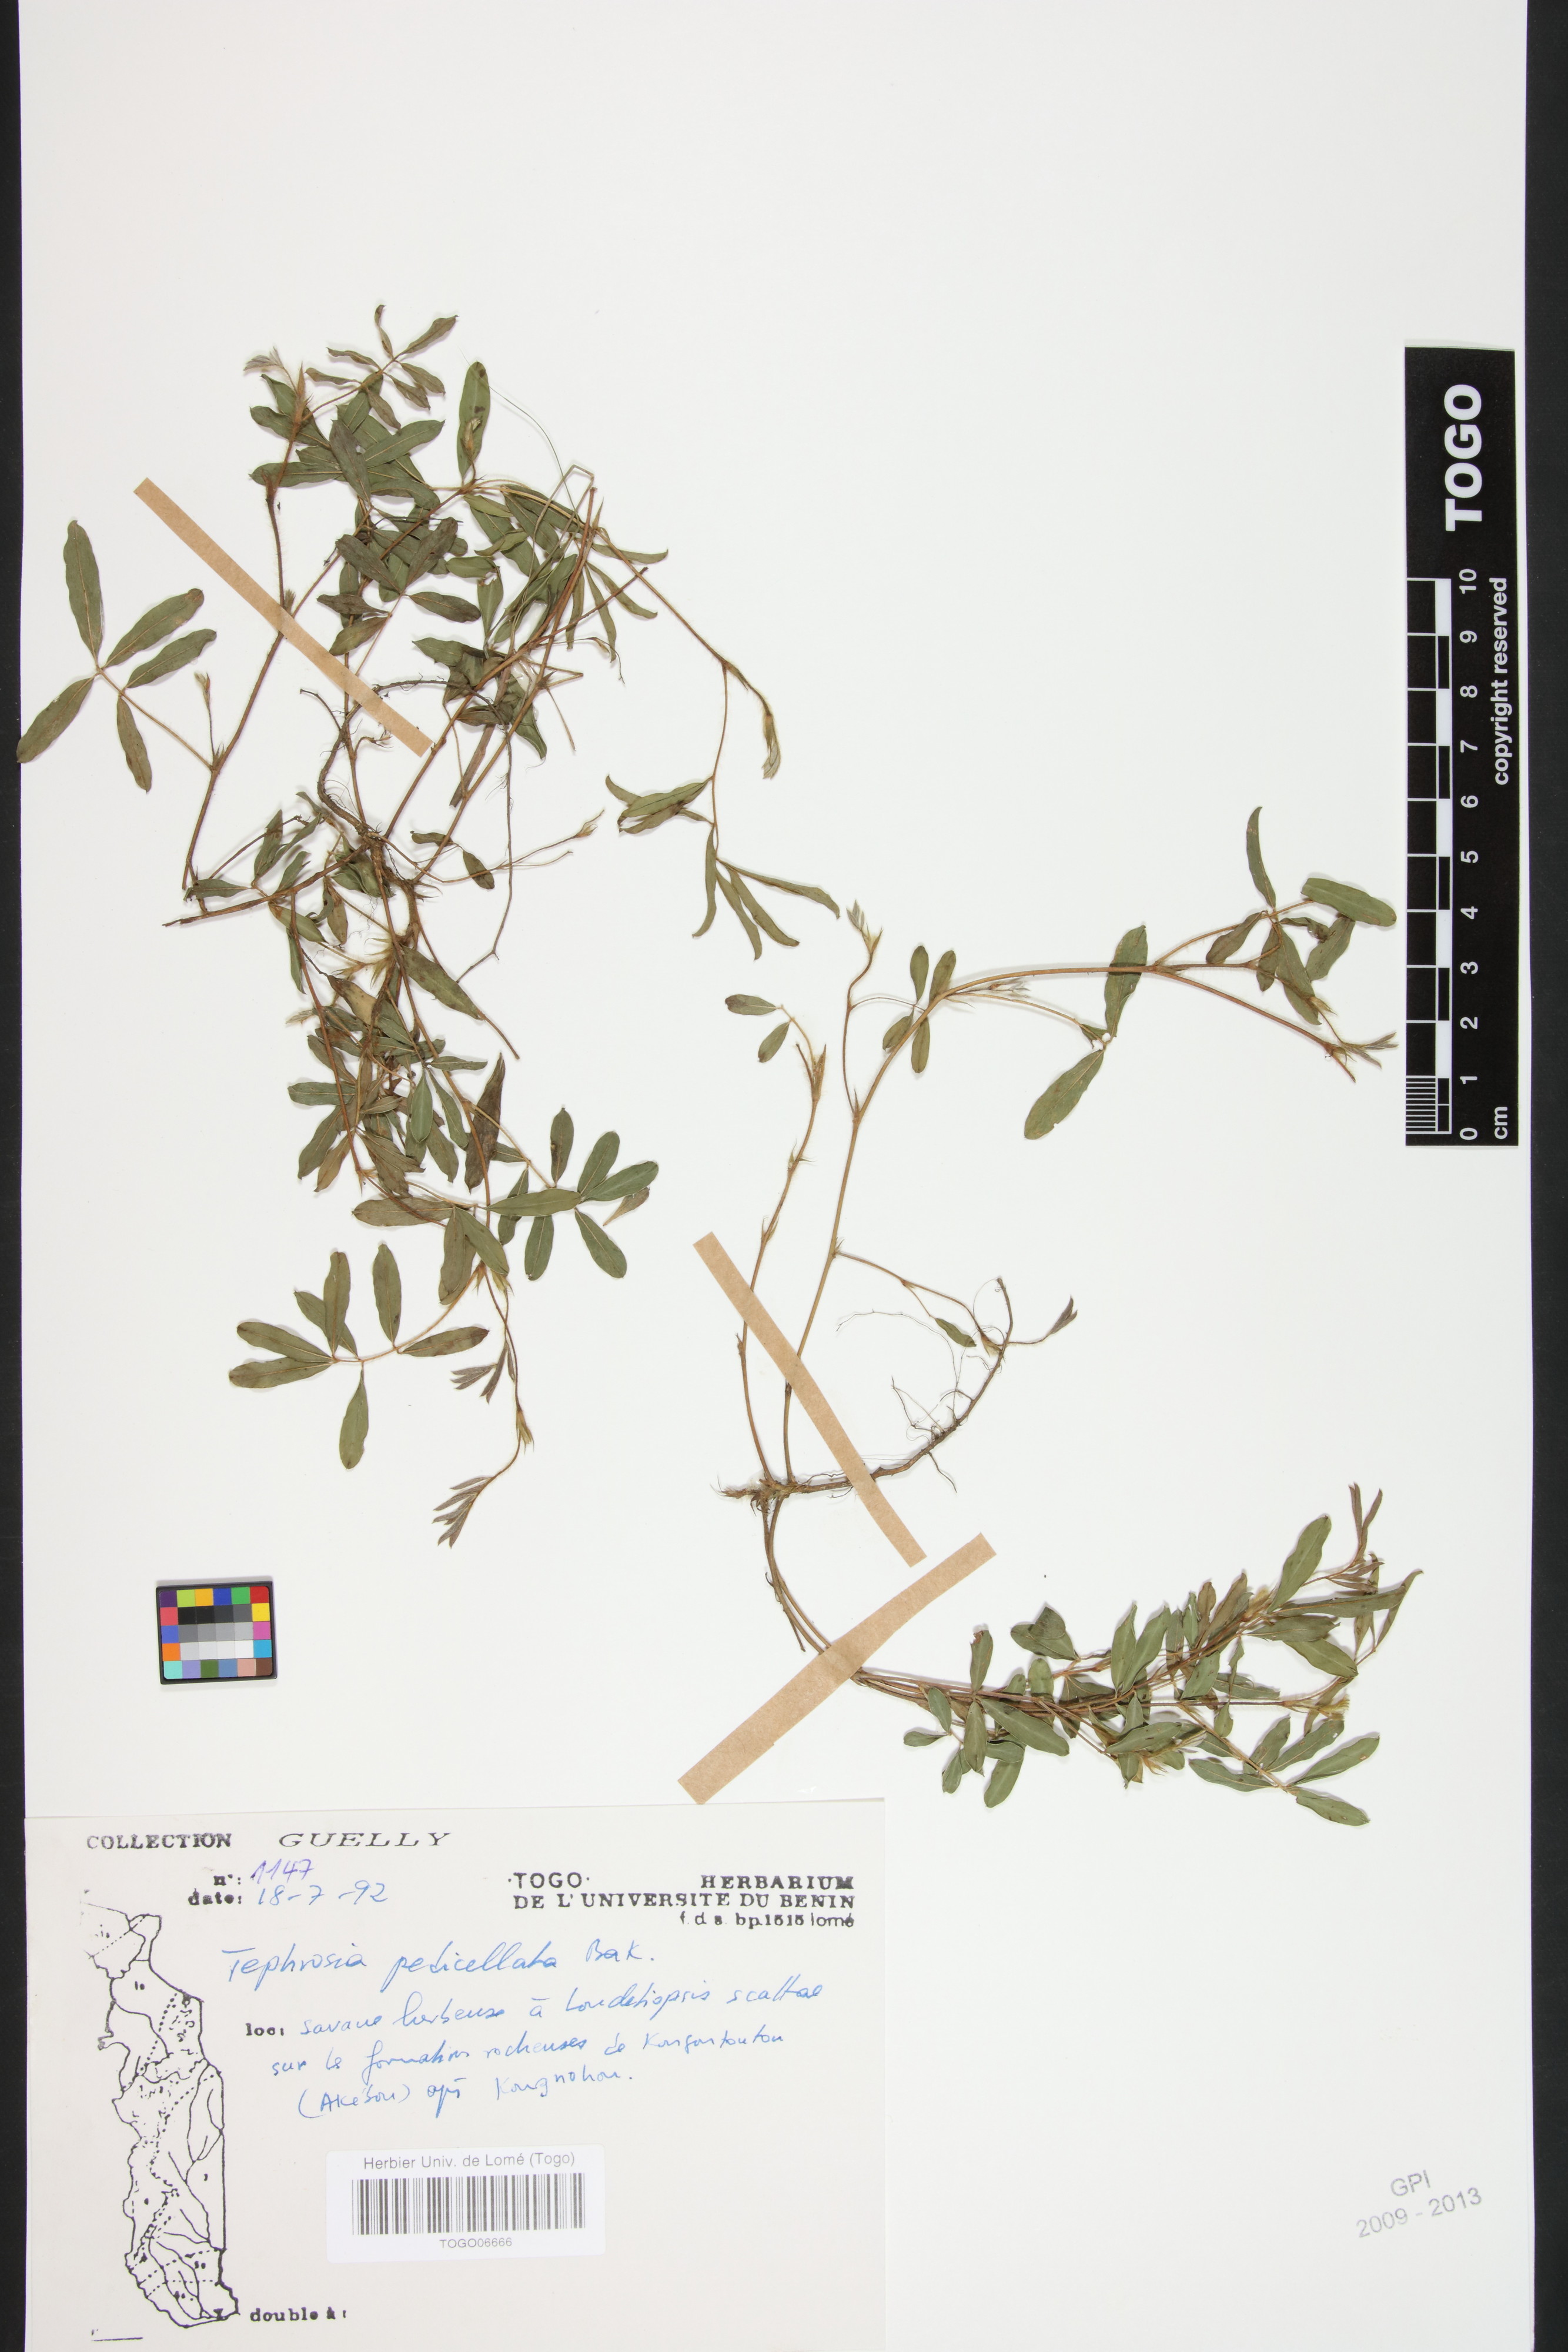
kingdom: Plantae
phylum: Tracheophyta
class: Magnoliopsida
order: Fabales
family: Fabaceae
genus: Tephrosia
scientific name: Tephrosia pedicellata
